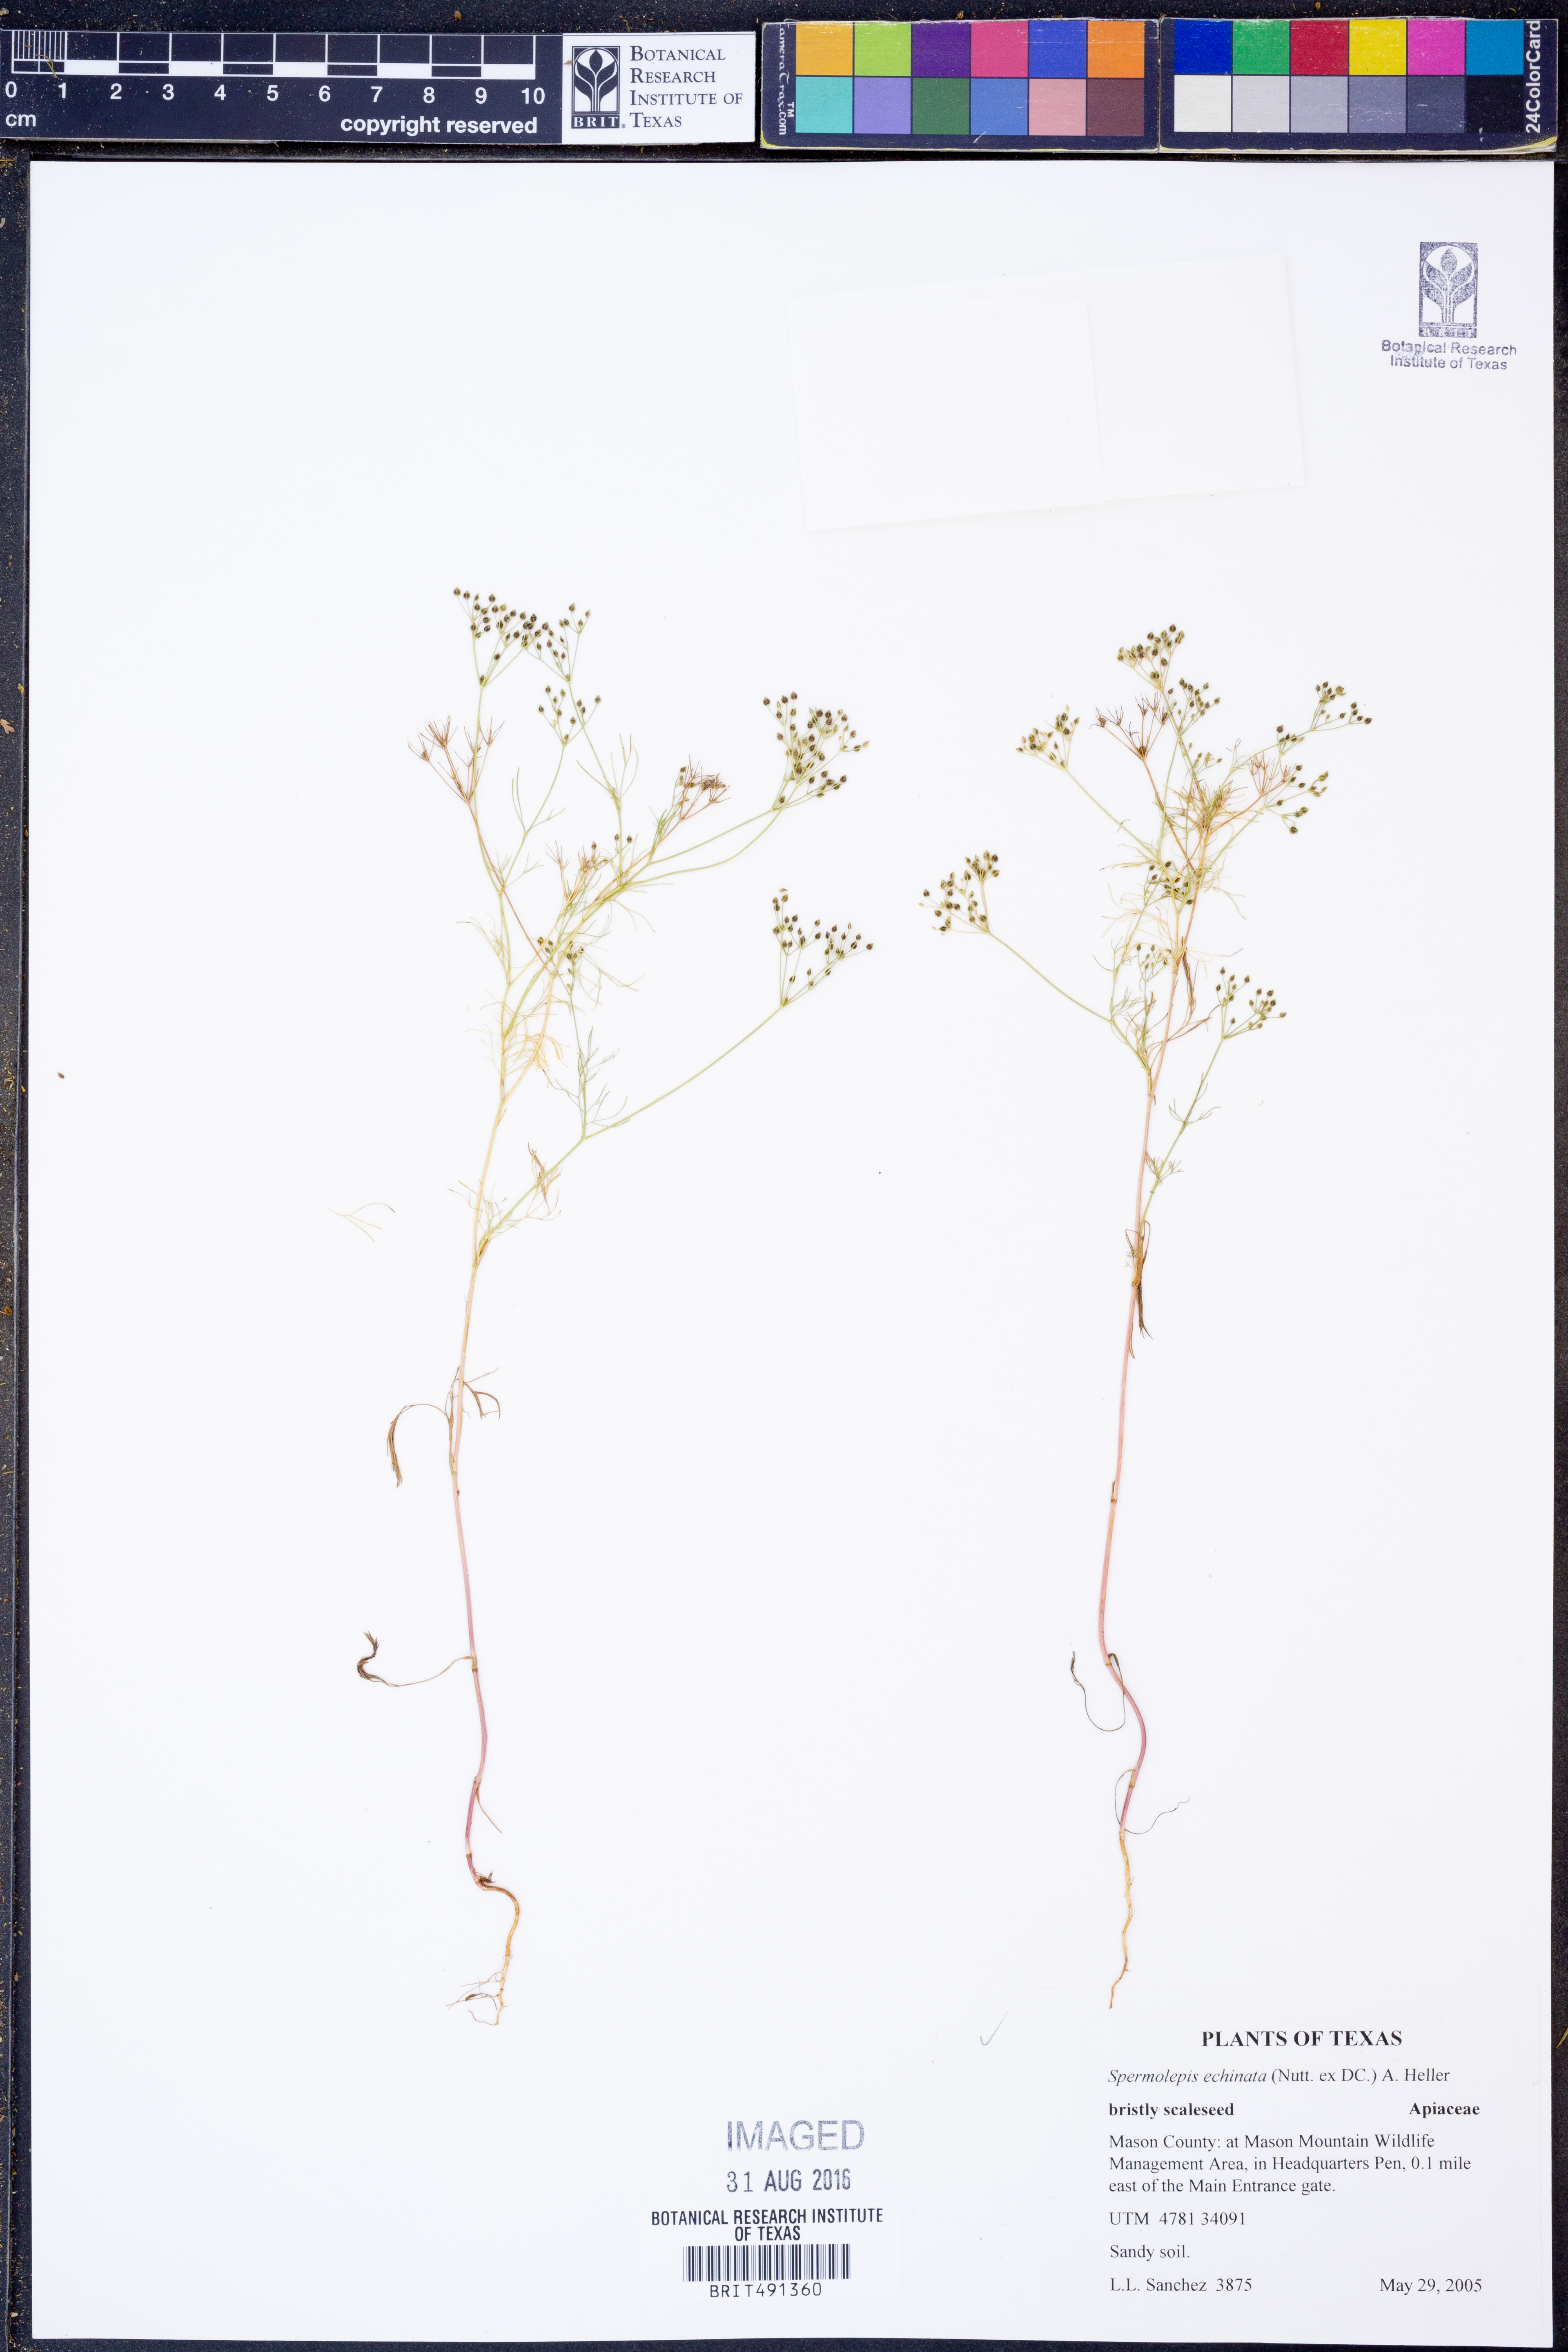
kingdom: Plantae
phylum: Tracheophyta
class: Magnoliopsida
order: Apiales
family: Apiaceae
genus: Spermolepis
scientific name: Spermolepis echinata
